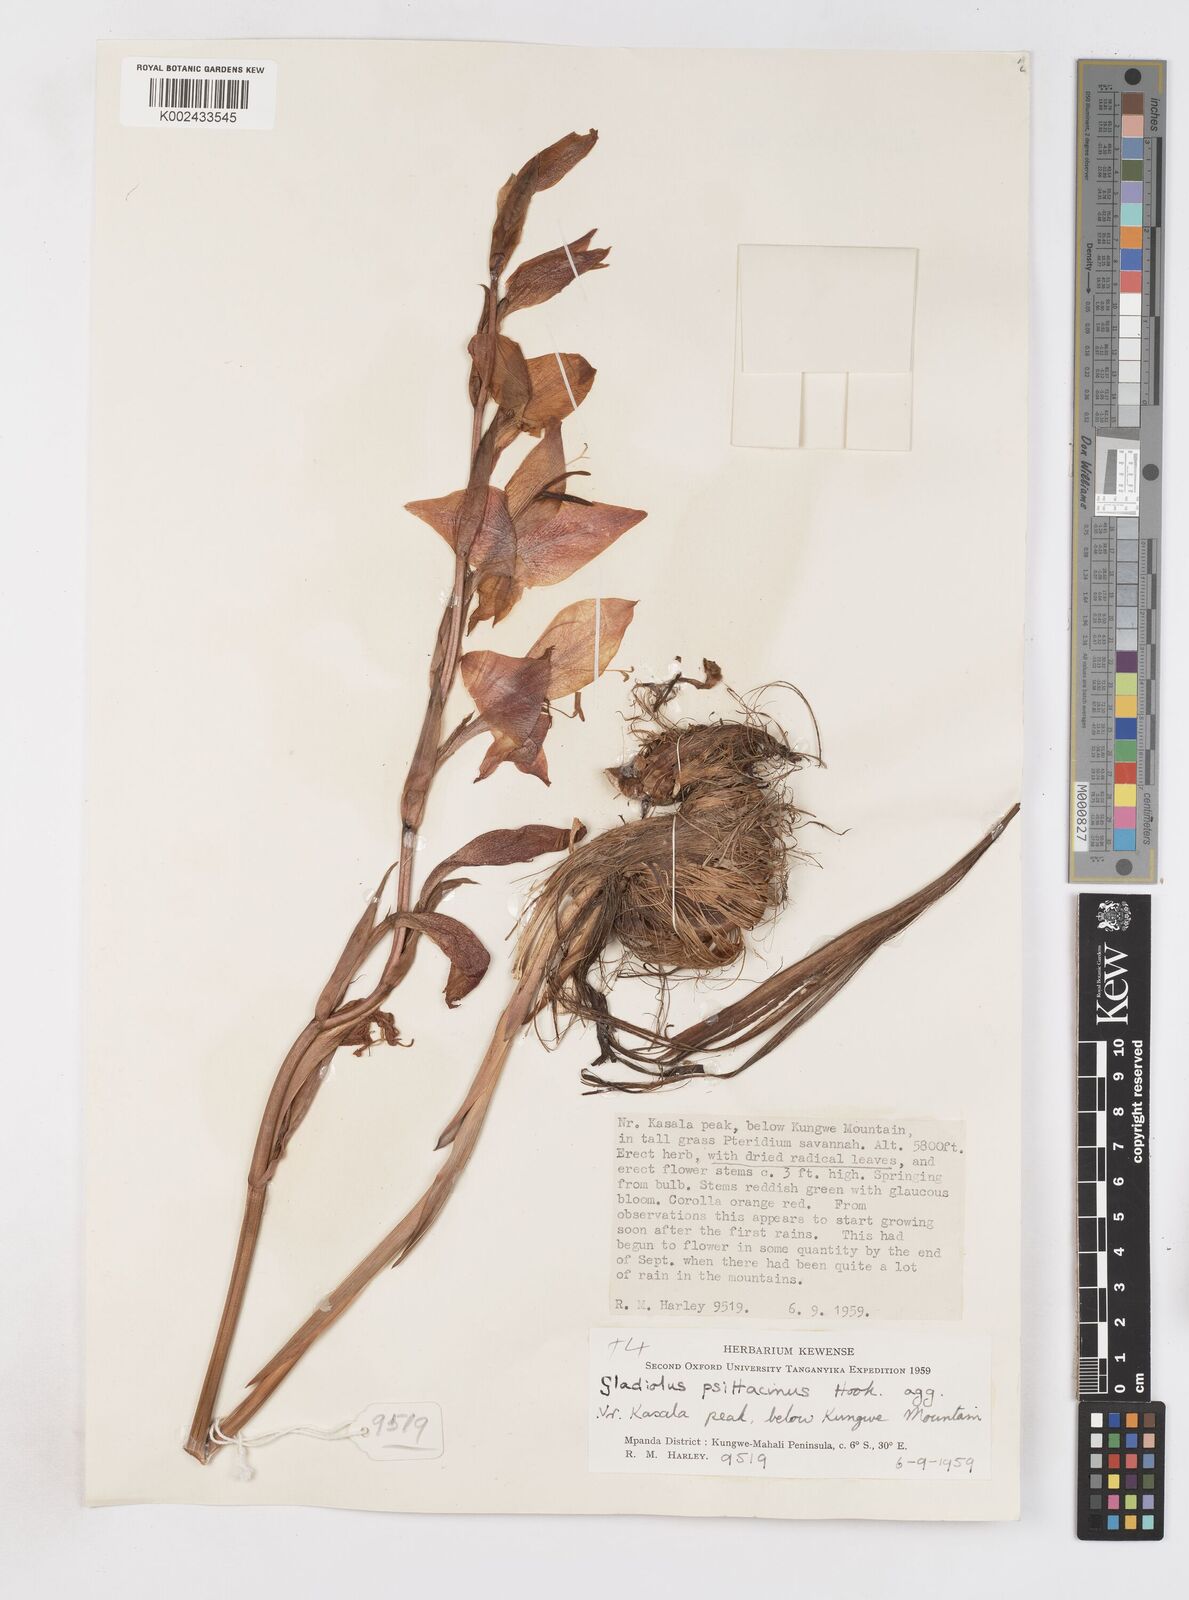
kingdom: Plantae
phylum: Tracheophyta
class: Liliopsida
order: Asparagales
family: Iridaceae
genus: Gladiolus
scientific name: Gladiolus dalenii
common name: Cornflag
